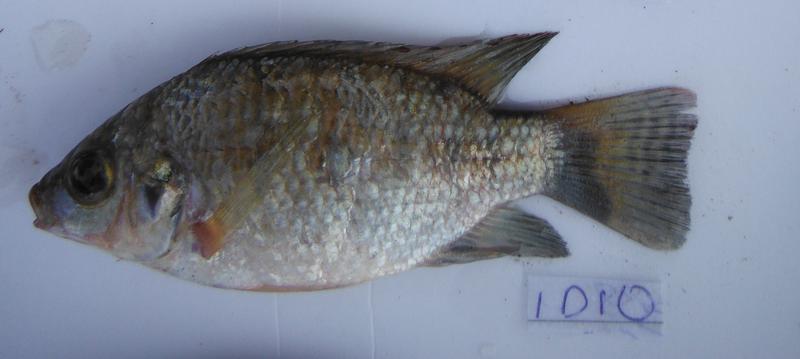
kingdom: Animalia
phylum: Chordata
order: Perciformes
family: Cichlidae
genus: Oreochromis
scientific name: Oreochromis urolepis
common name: Wami tilapia
